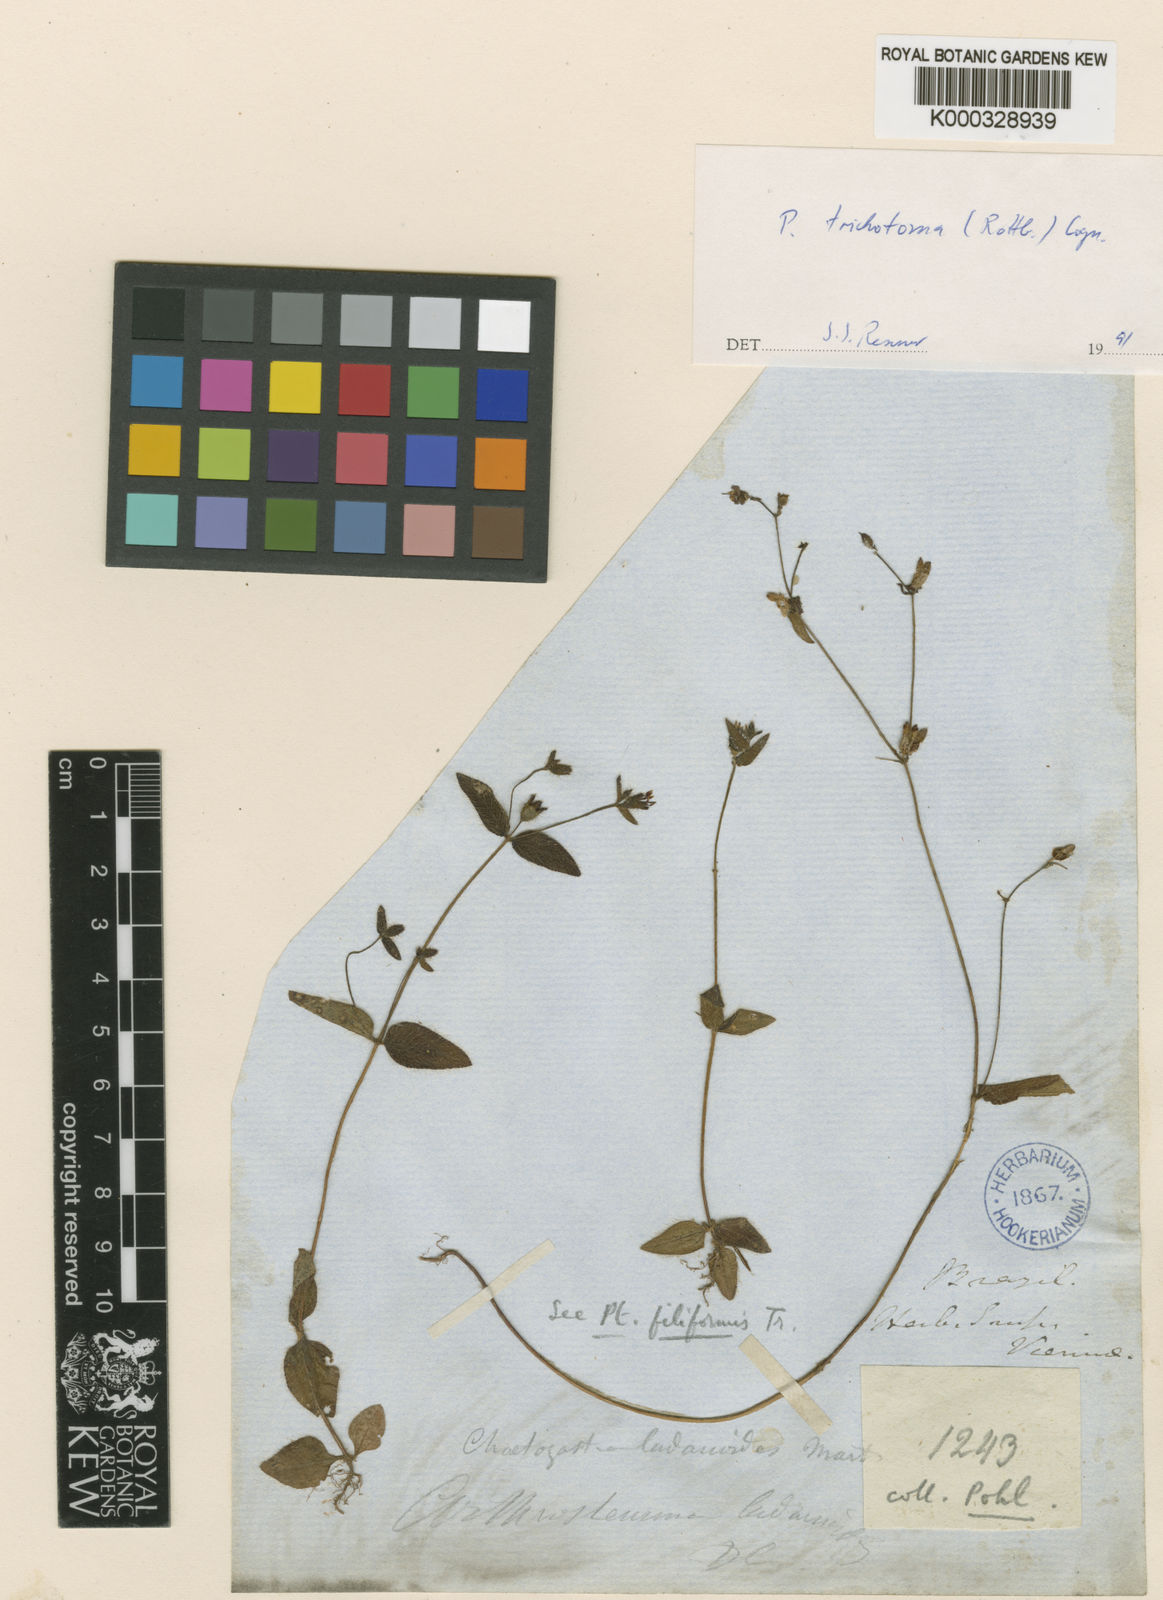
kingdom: Plantae
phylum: Tracheophyta
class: Magnoliopsida
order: Myrtales
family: Melastomataceae
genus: Pterolepis
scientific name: Pterolepis trichotoma
